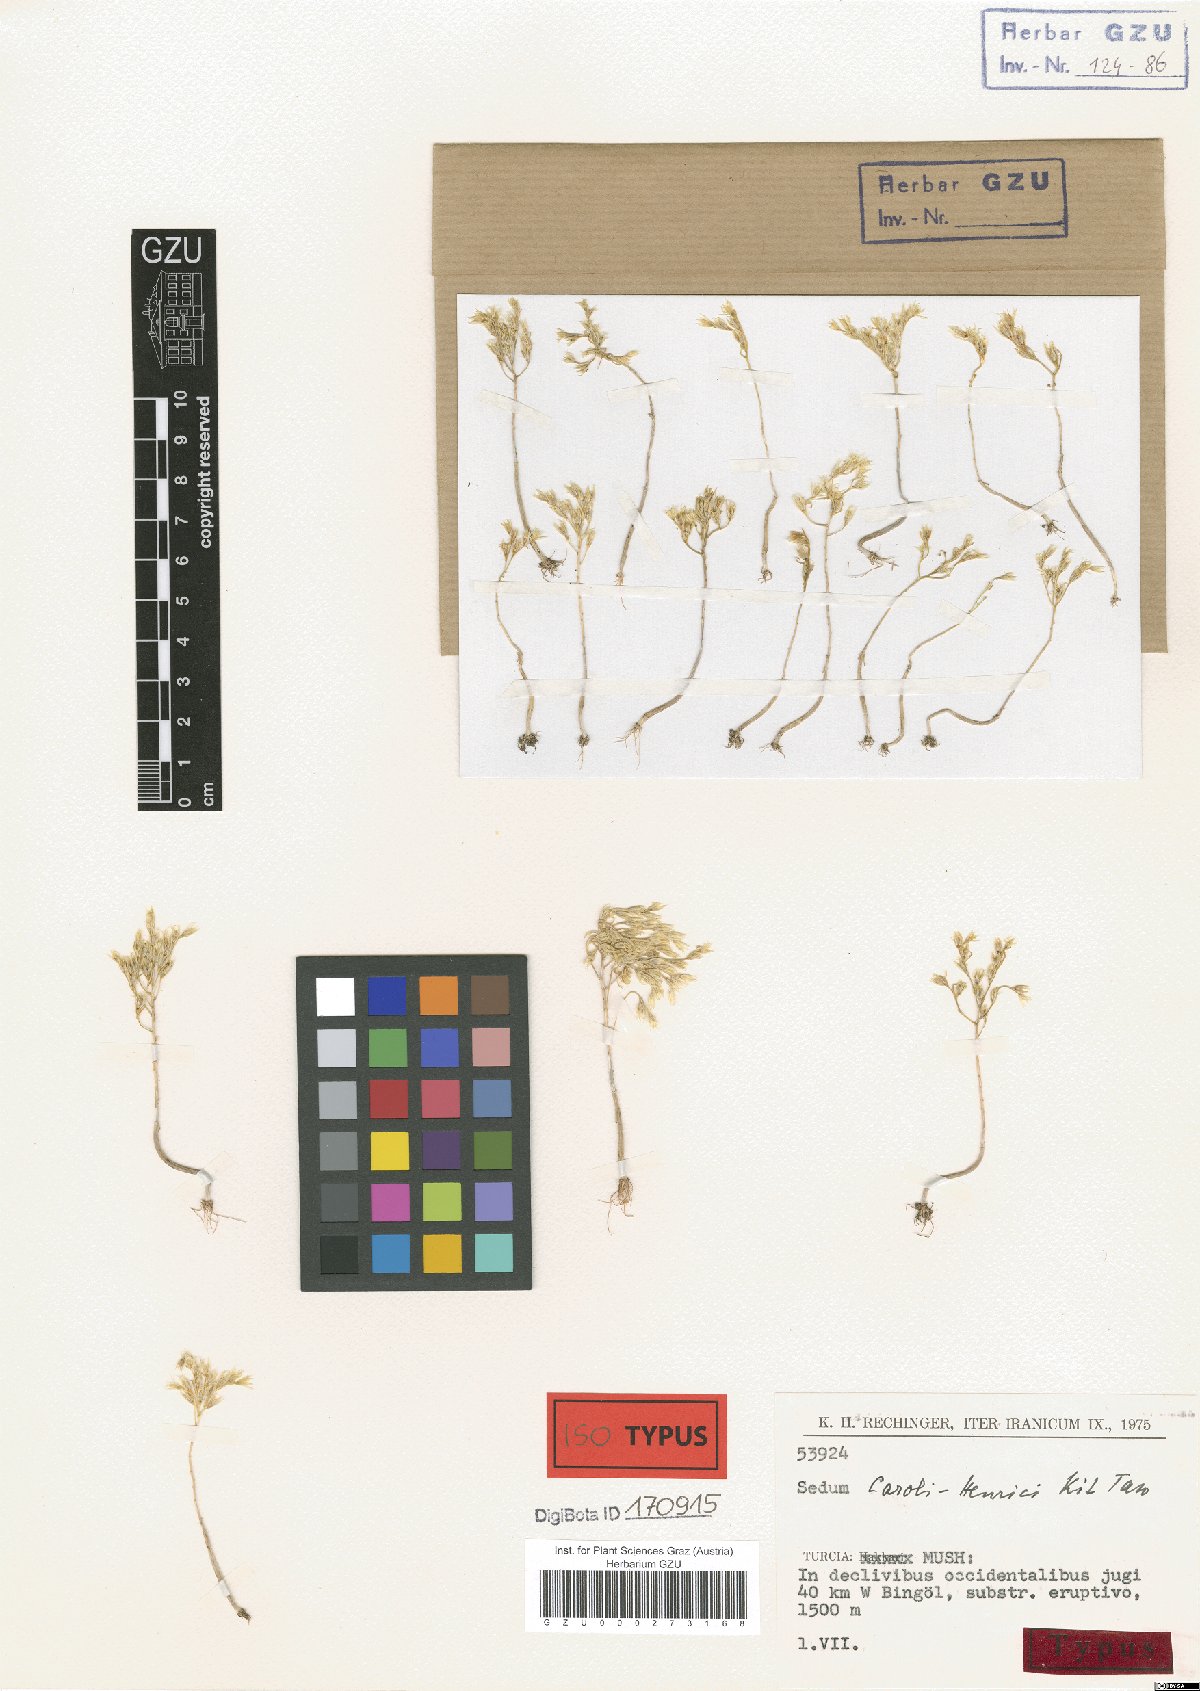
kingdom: Plantae
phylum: Tracheophyta
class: Magnoliopsida
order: Saxifragales
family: Crassulaceae
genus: Sedum
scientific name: Sedum caroli-henrici
